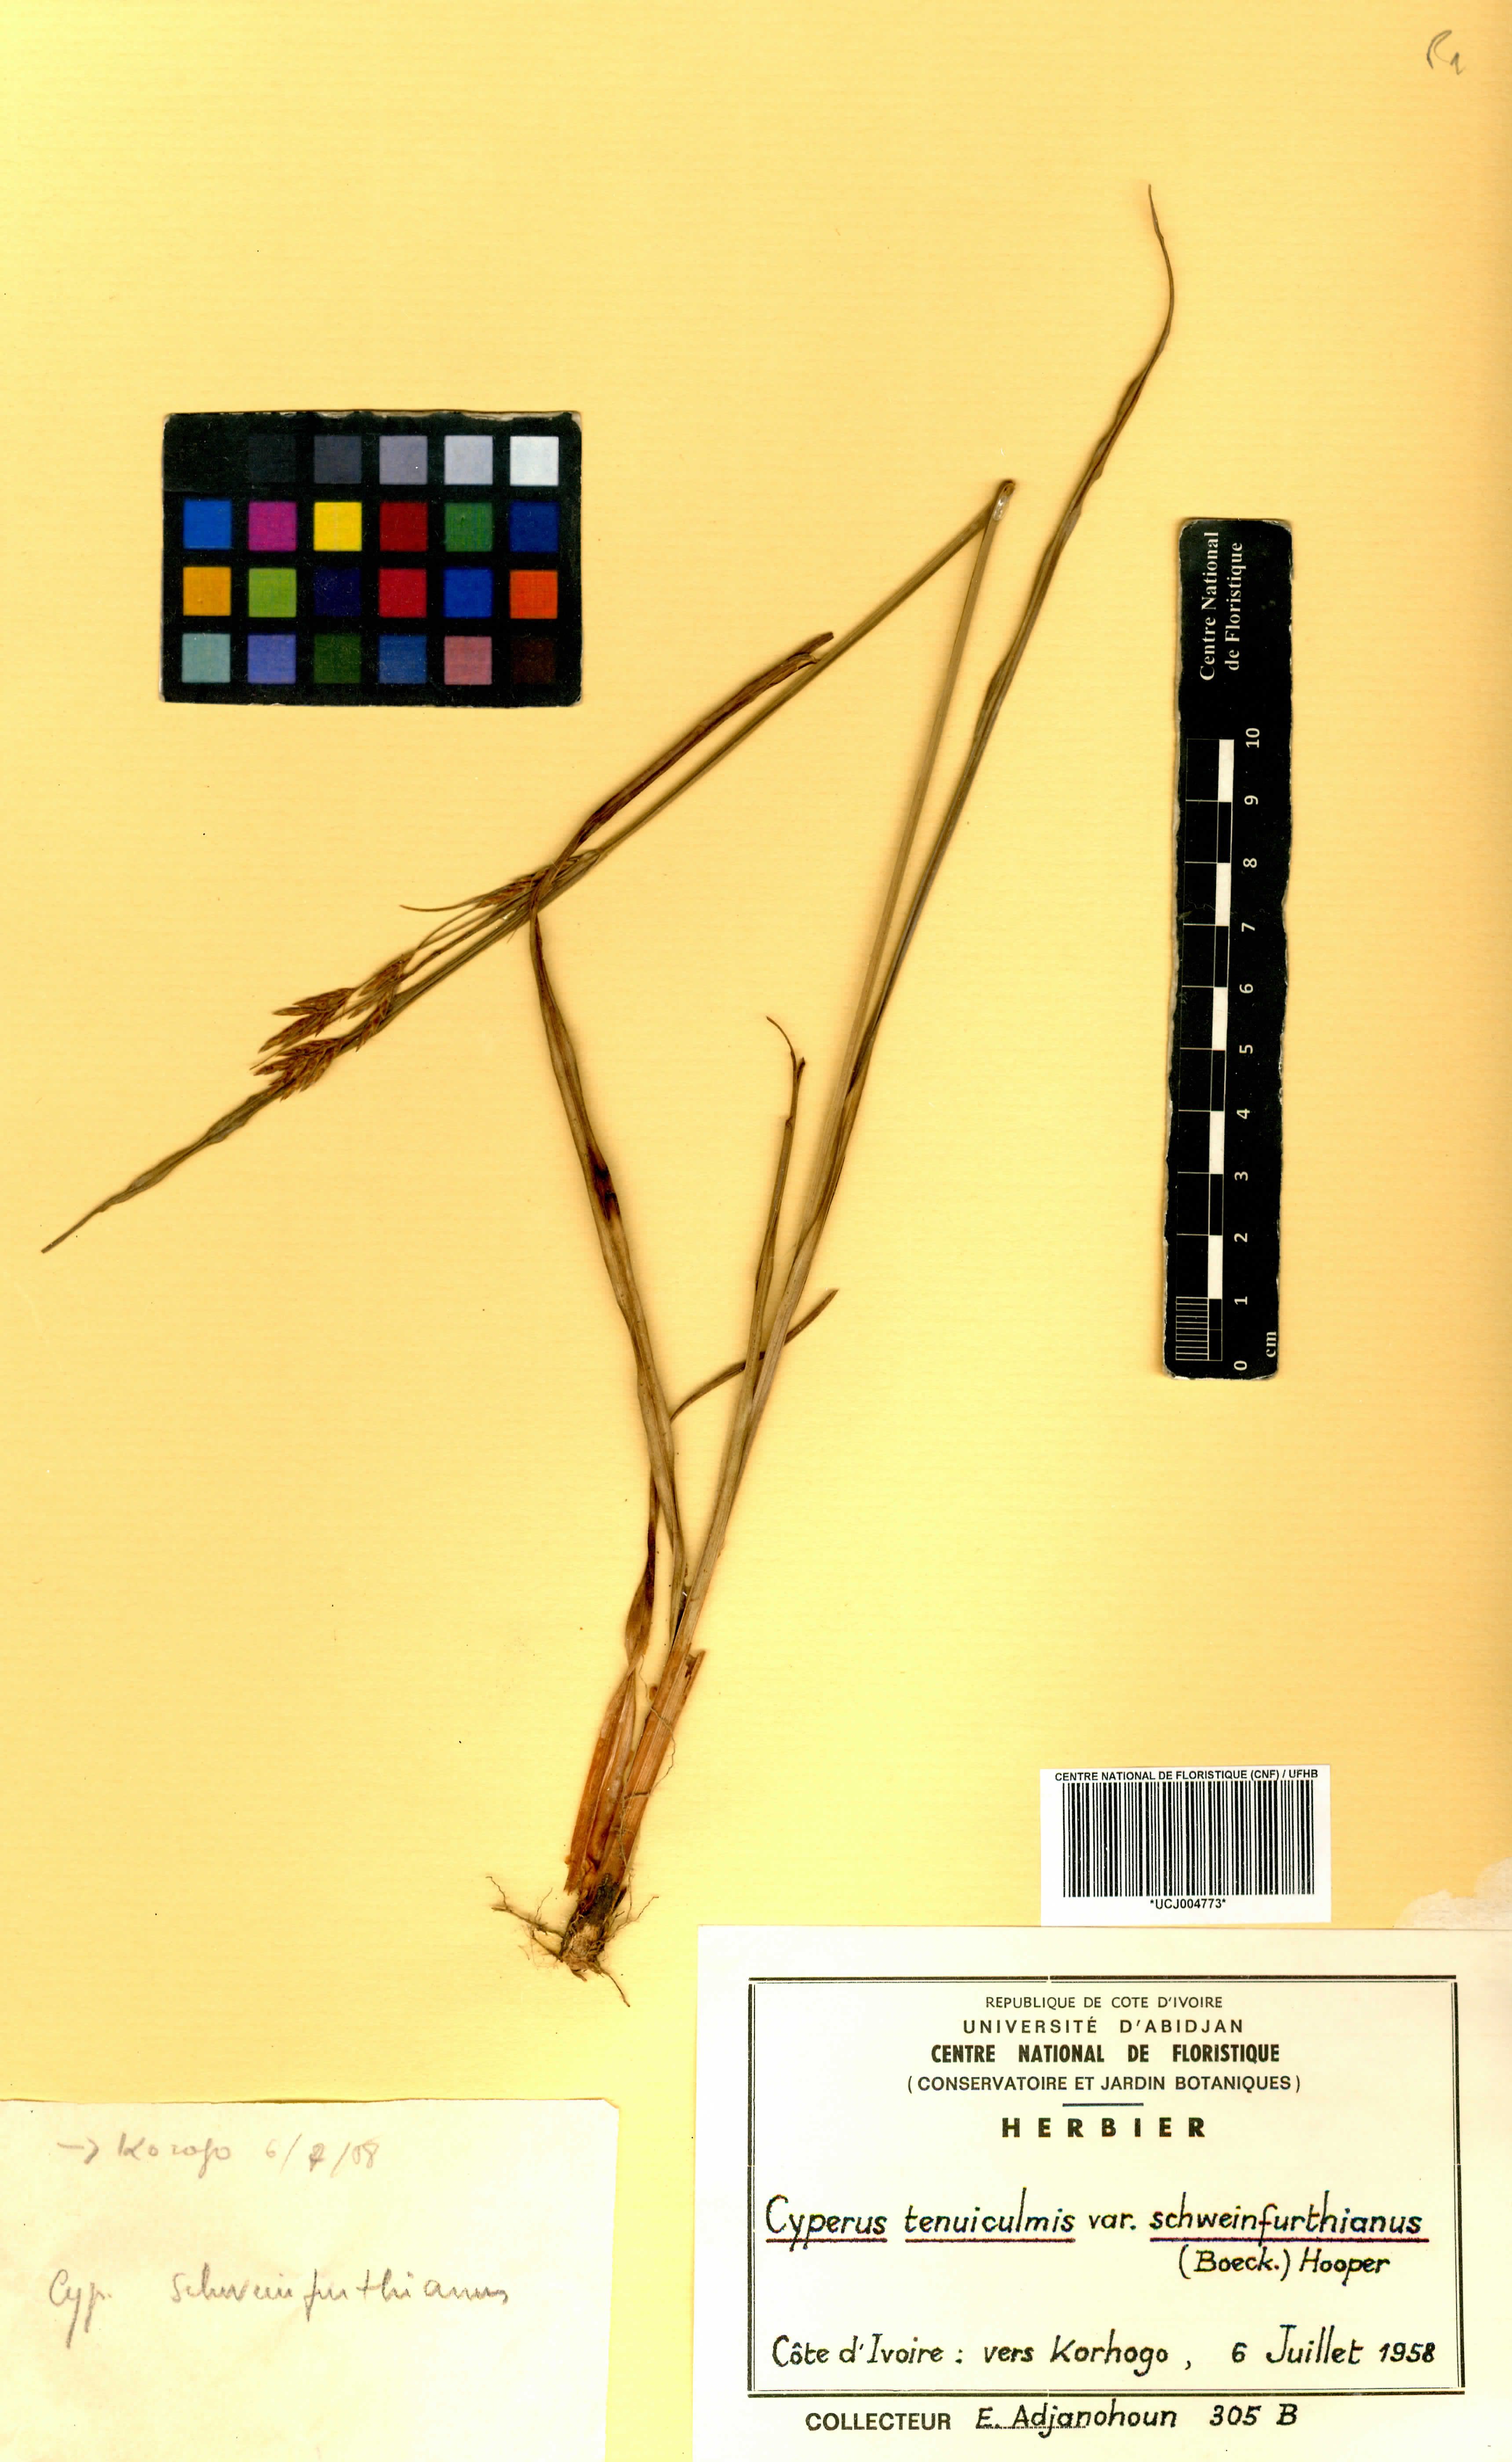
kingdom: Plantae
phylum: Tracheophyta
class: Liliopsida
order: Poales
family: Cyperaceae
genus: Cyperus
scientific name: Cyperus tenuiculmis
